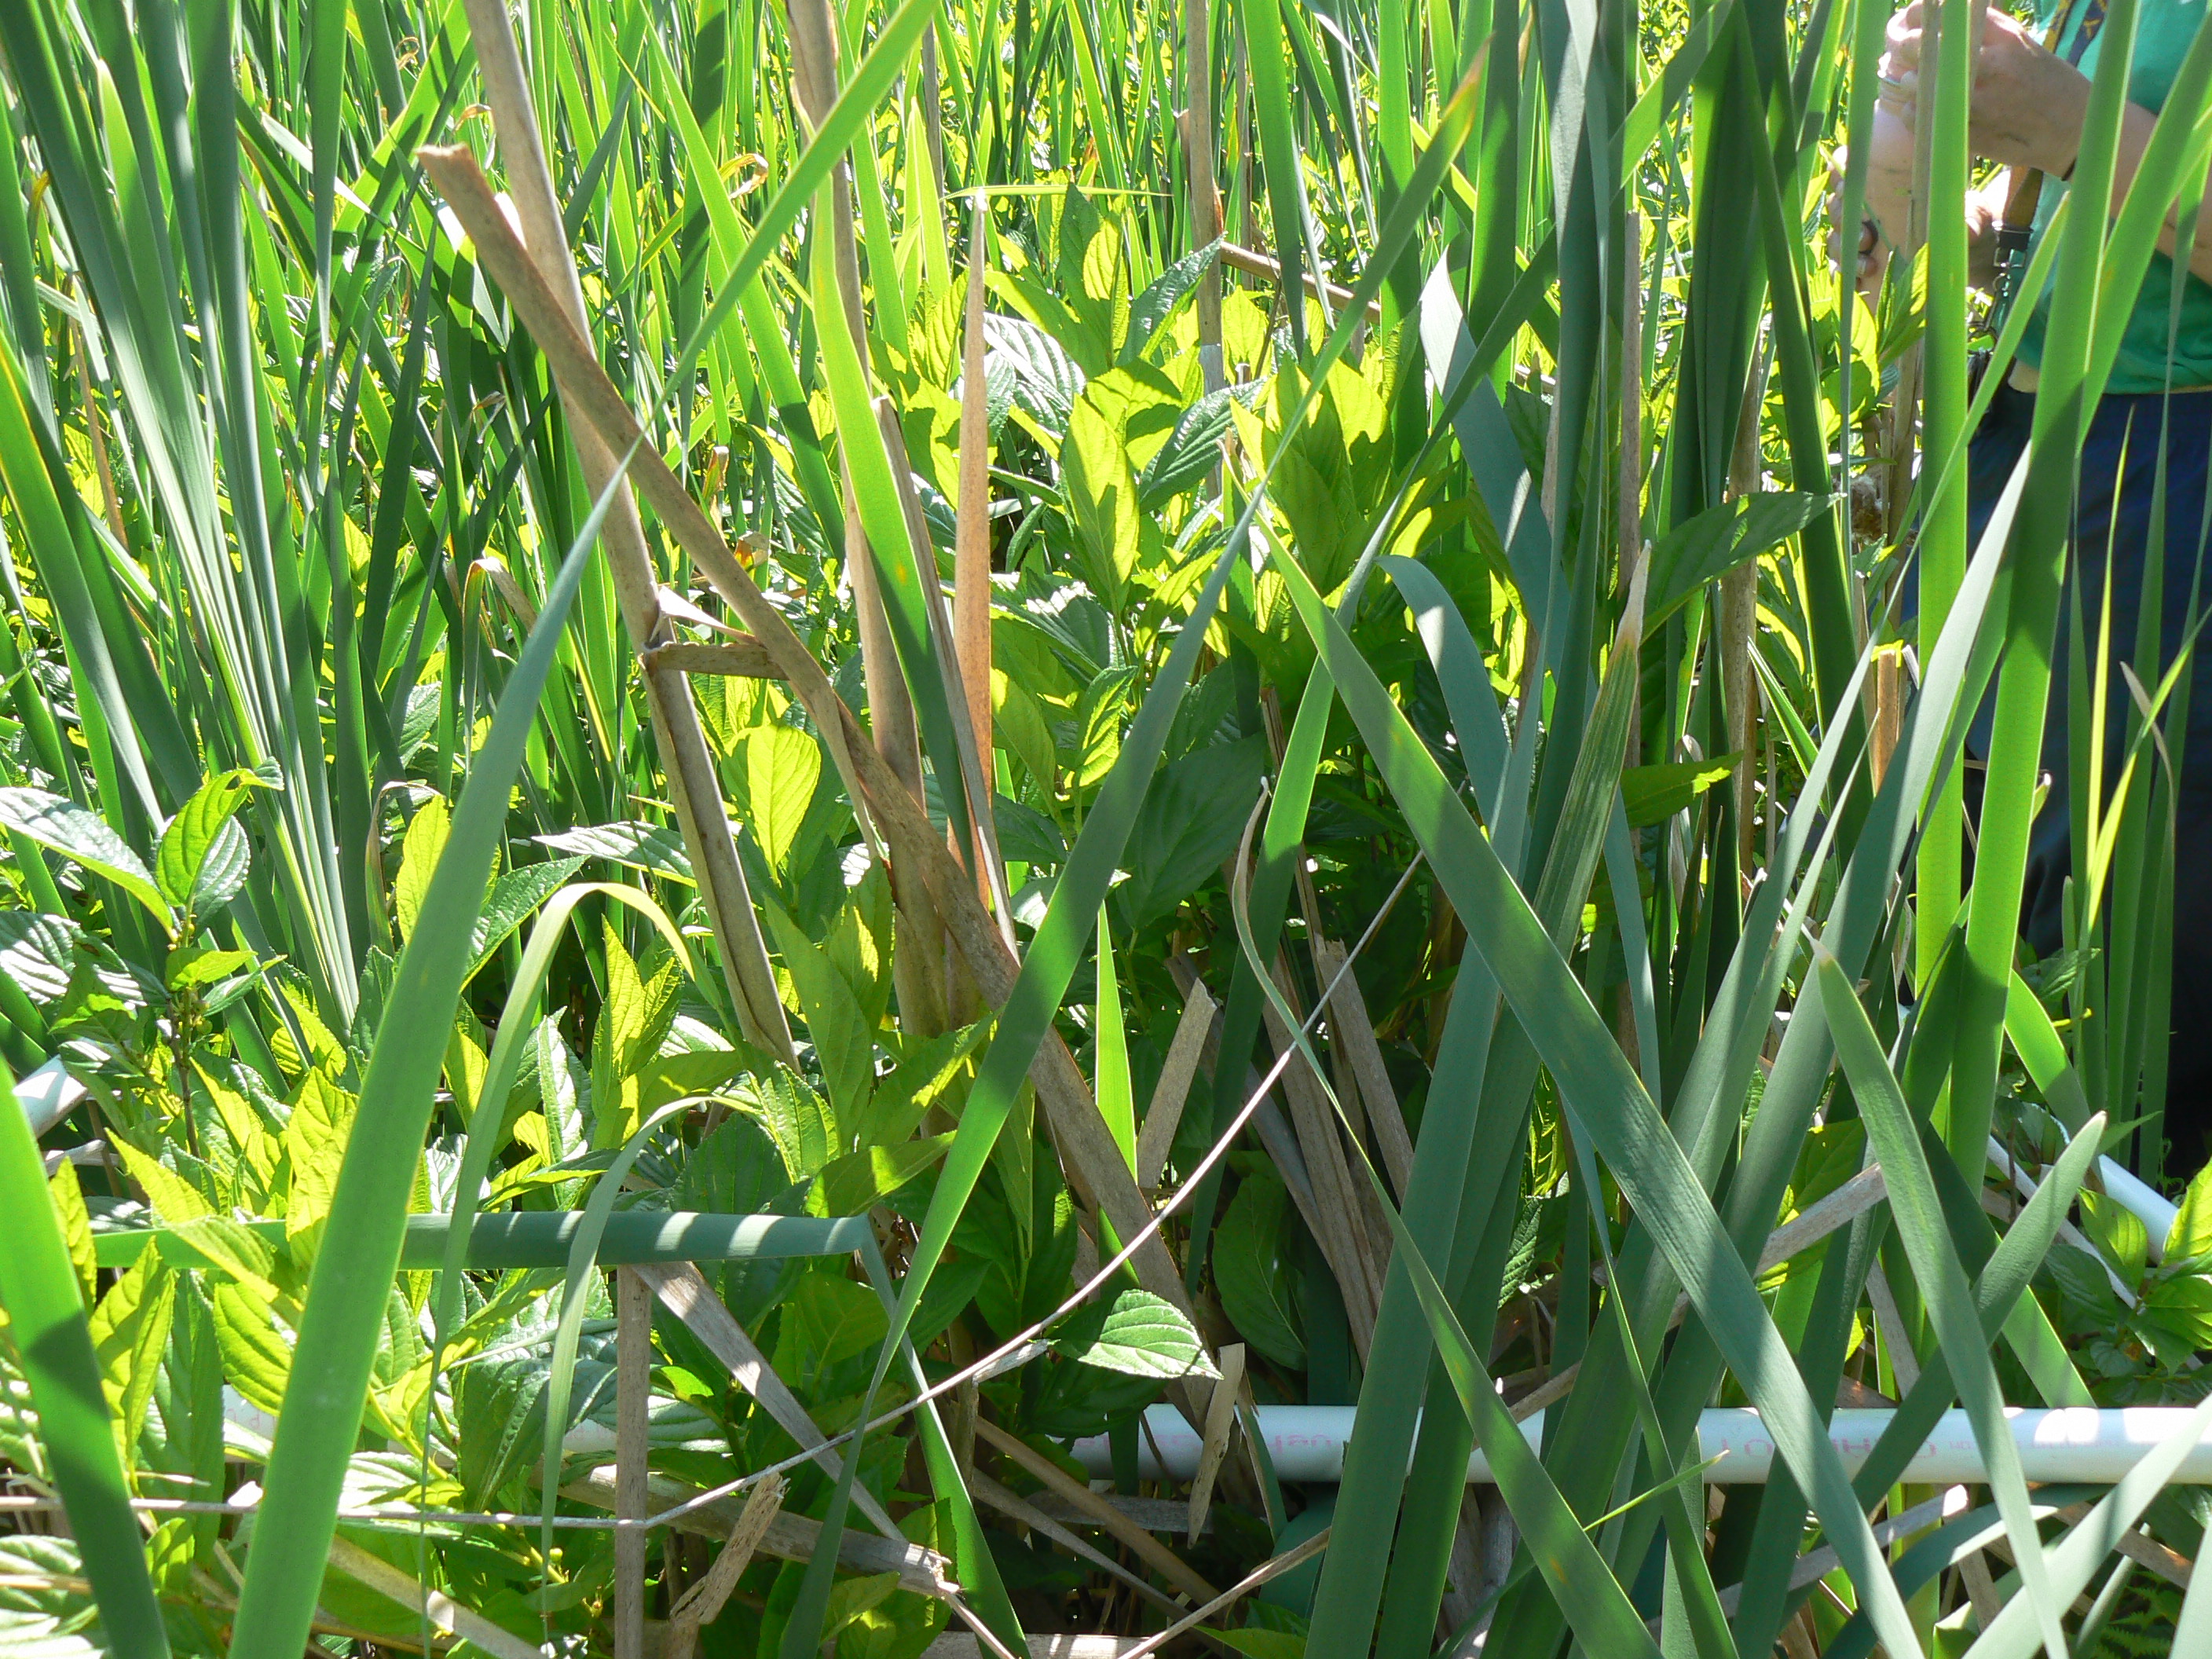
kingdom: Plantae
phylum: Tracheophyta
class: Magnoliopsida
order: Asterales
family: Campanulaceae
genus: Palustricodon
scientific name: Palustricodon aparinoides
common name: Bedstraw bellflower
